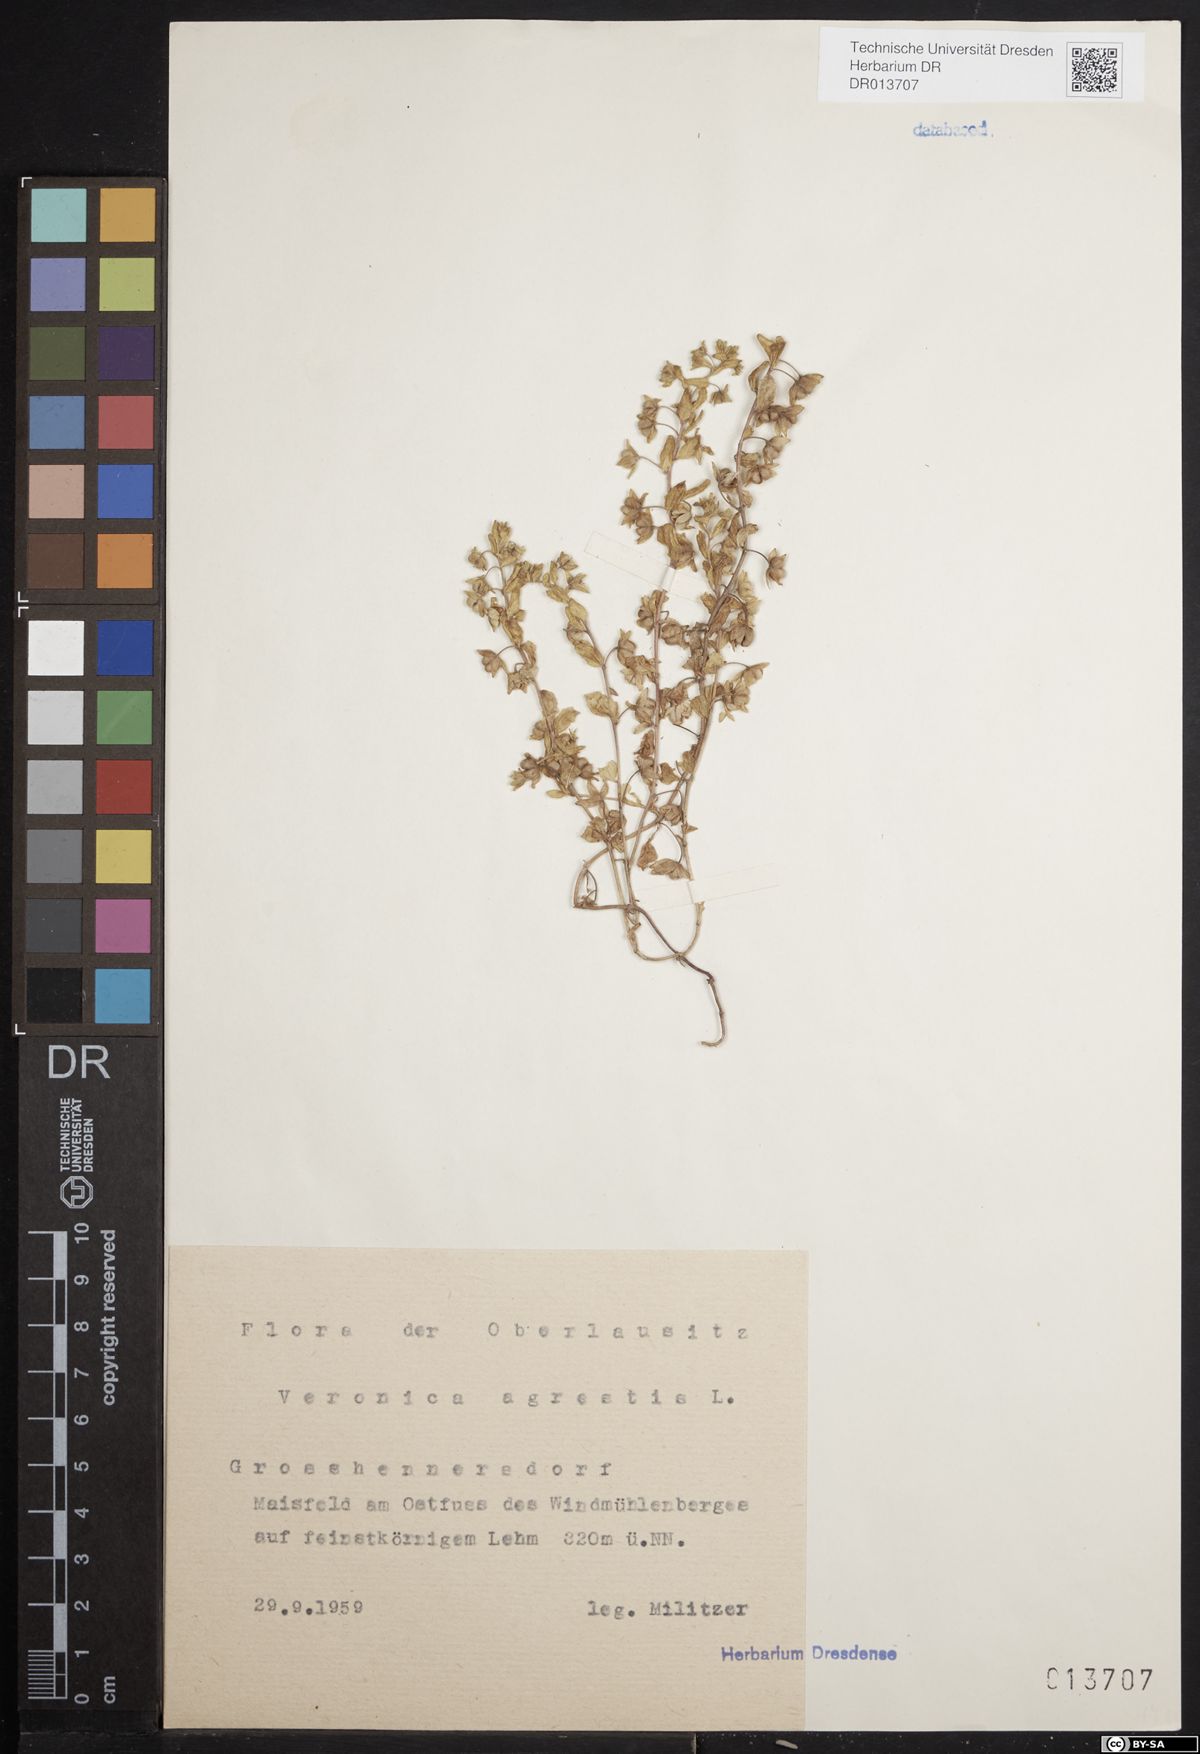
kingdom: Plantae
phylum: Tracheophyta
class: Magnoliopsida
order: Lamiales
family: Plantaginaceae
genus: Veronica
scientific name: Veronica agrestis
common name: Green field-speedwell
